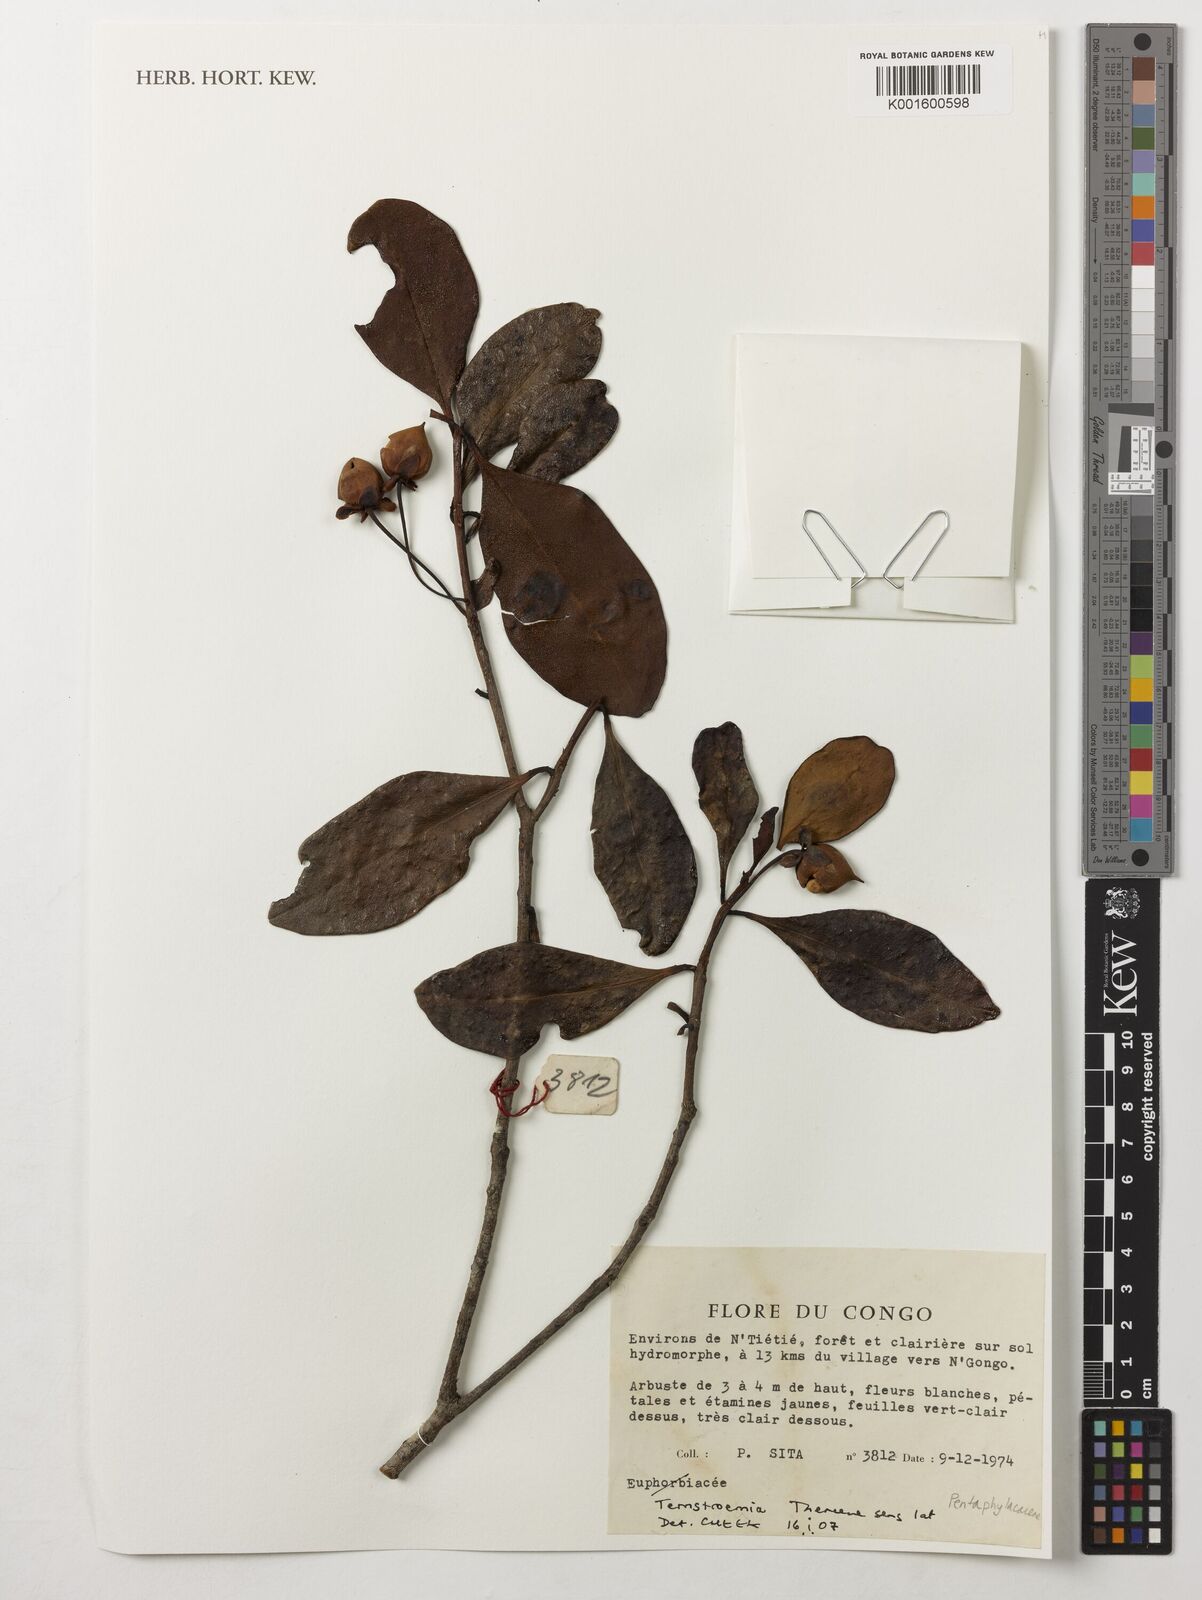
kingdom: Plantae
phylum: Tracheophyta
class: Magnoliopsida
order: Ericales
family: Pentaphylacaceae
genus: Ternstroemia
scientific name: Ternstroemia
